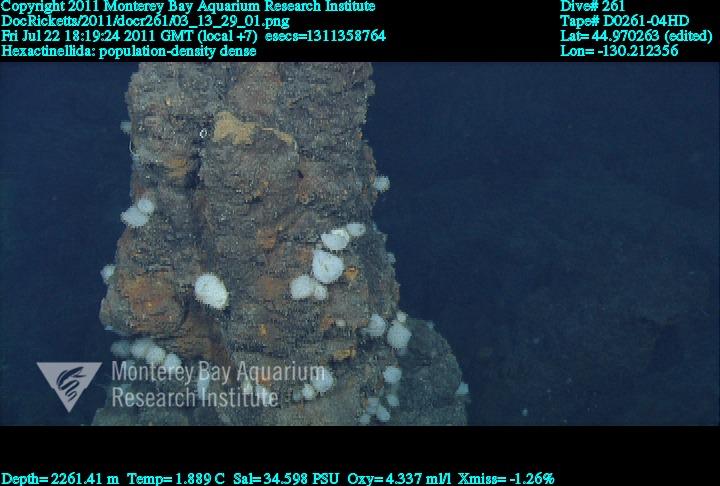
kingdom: Animalia
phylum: Porifera
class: Hexactinellida
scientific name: Hexactinellida
